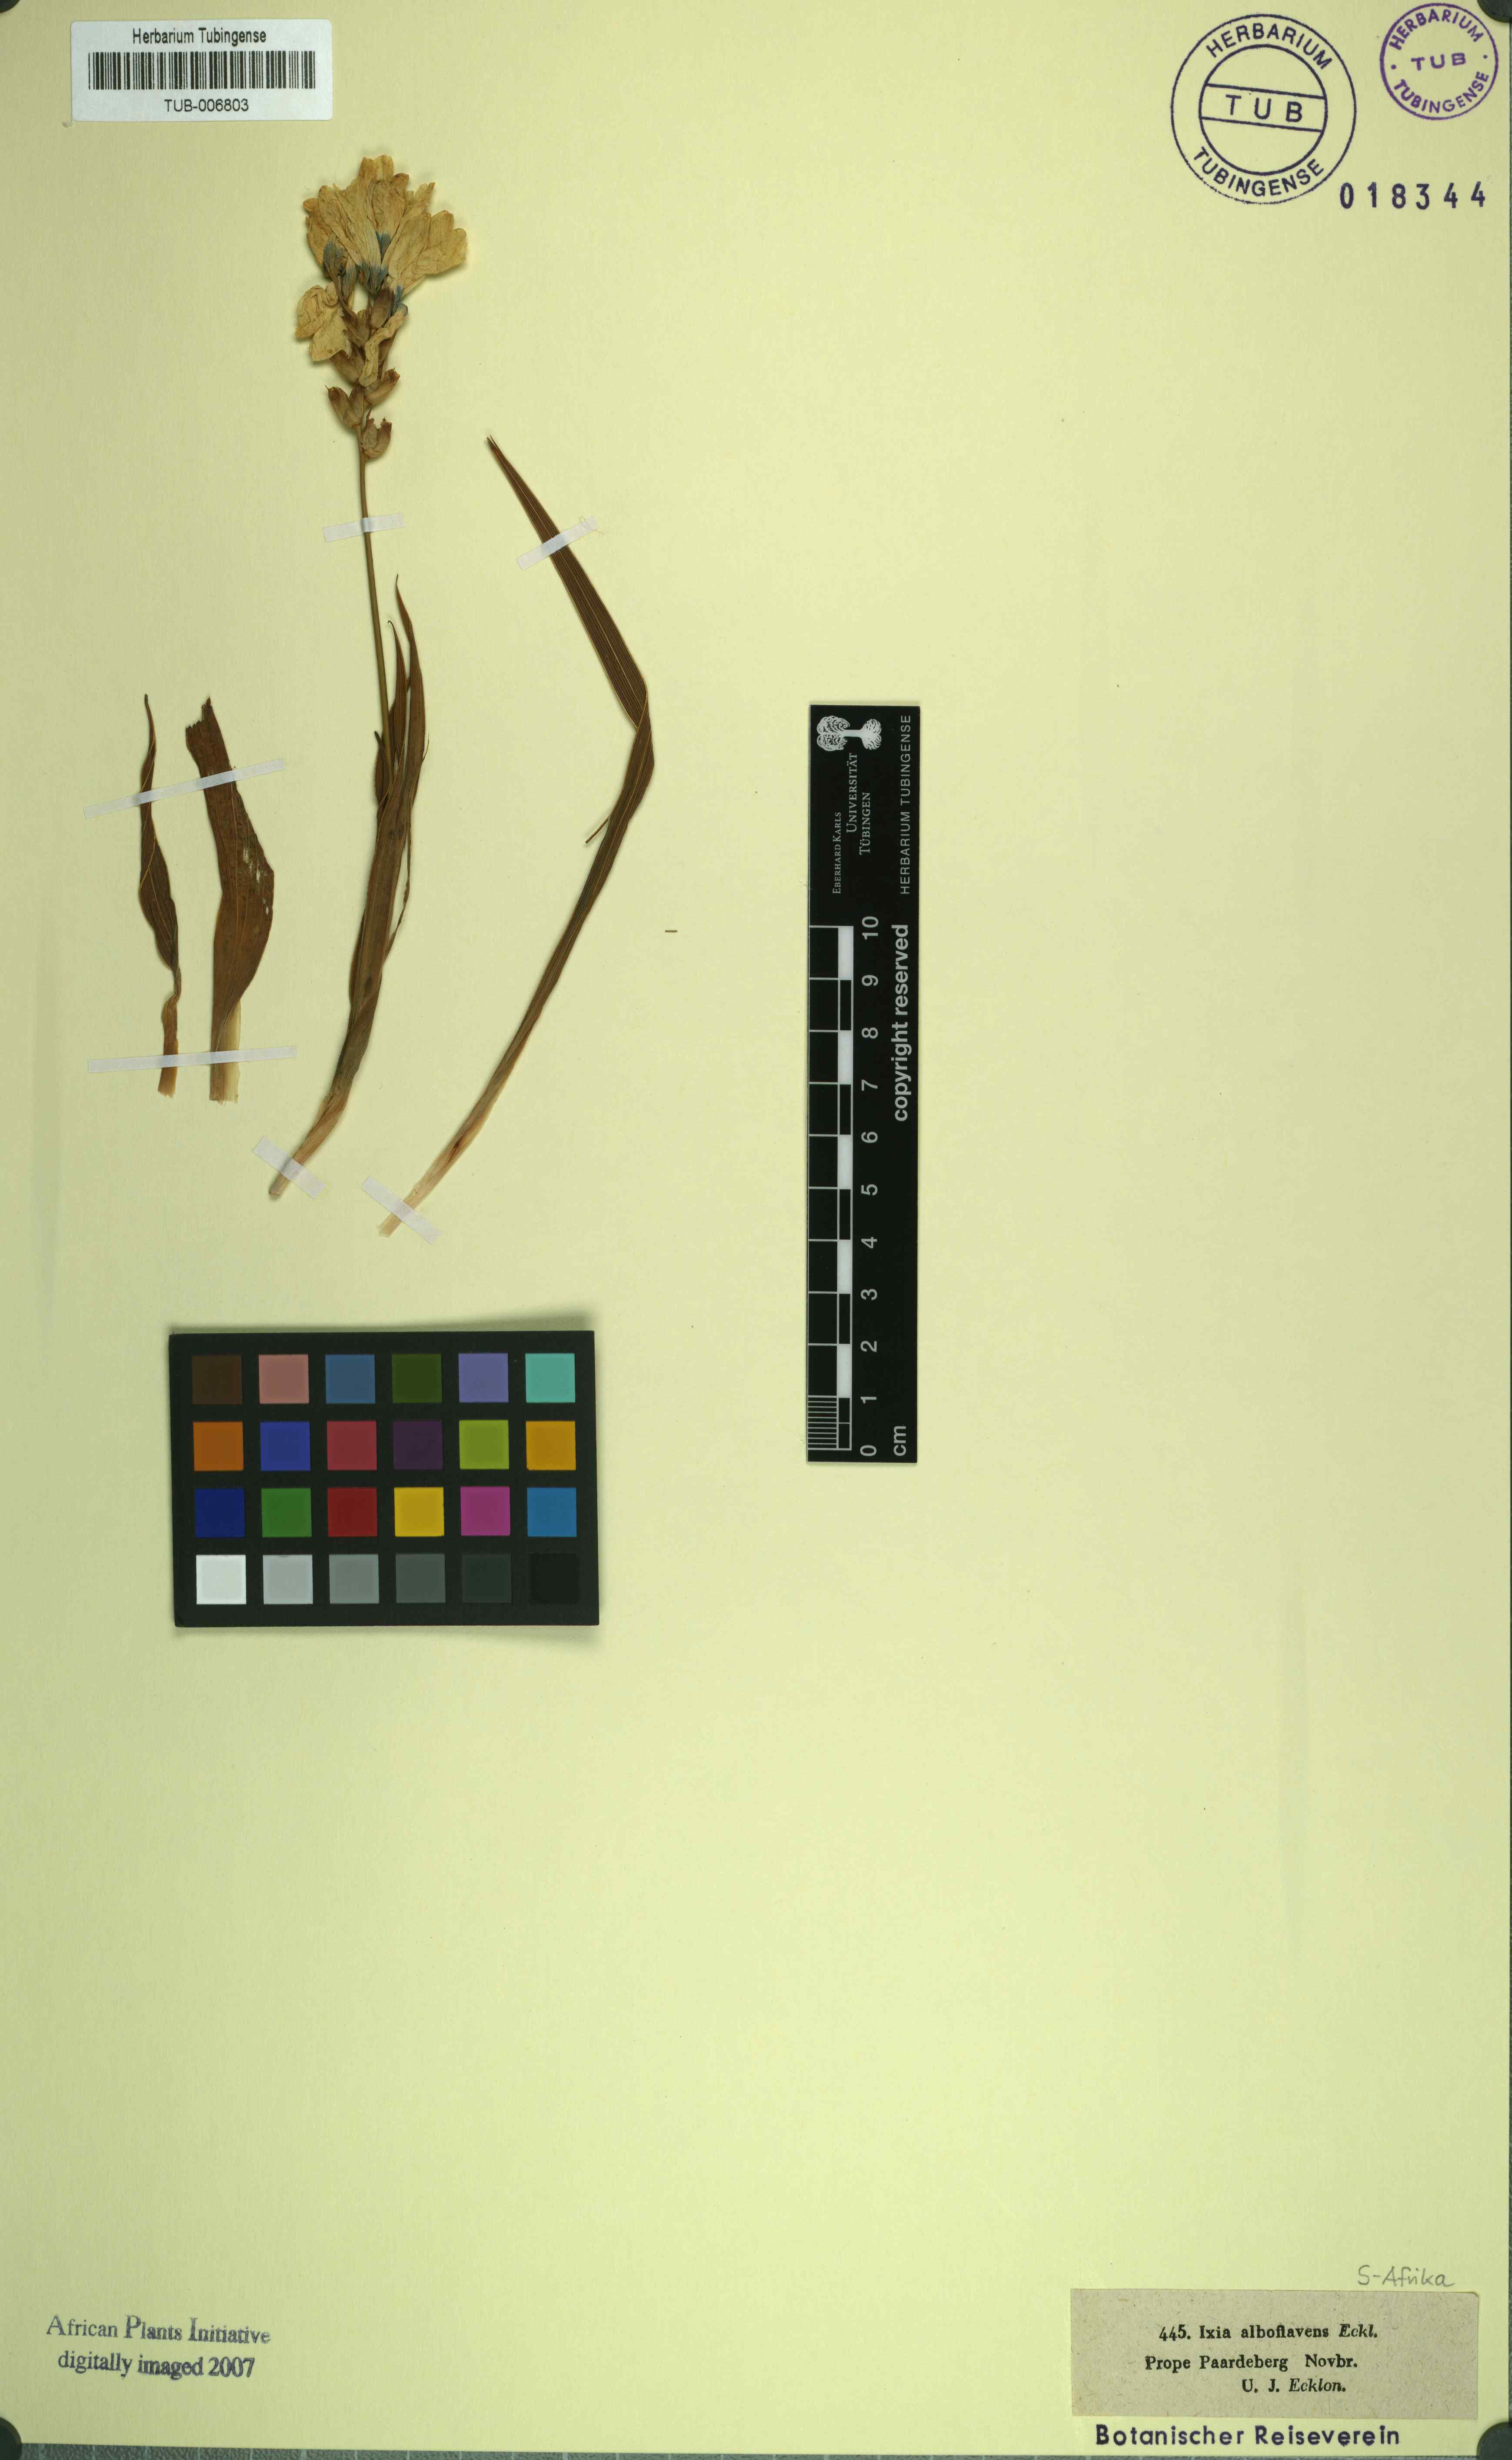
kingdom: Plantae
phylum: Tracheophyta
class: Liliopsida
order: Asparagales
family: Iridaceae
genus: Ixia
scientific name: Ixia maculata
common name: Spotted african cornlily
